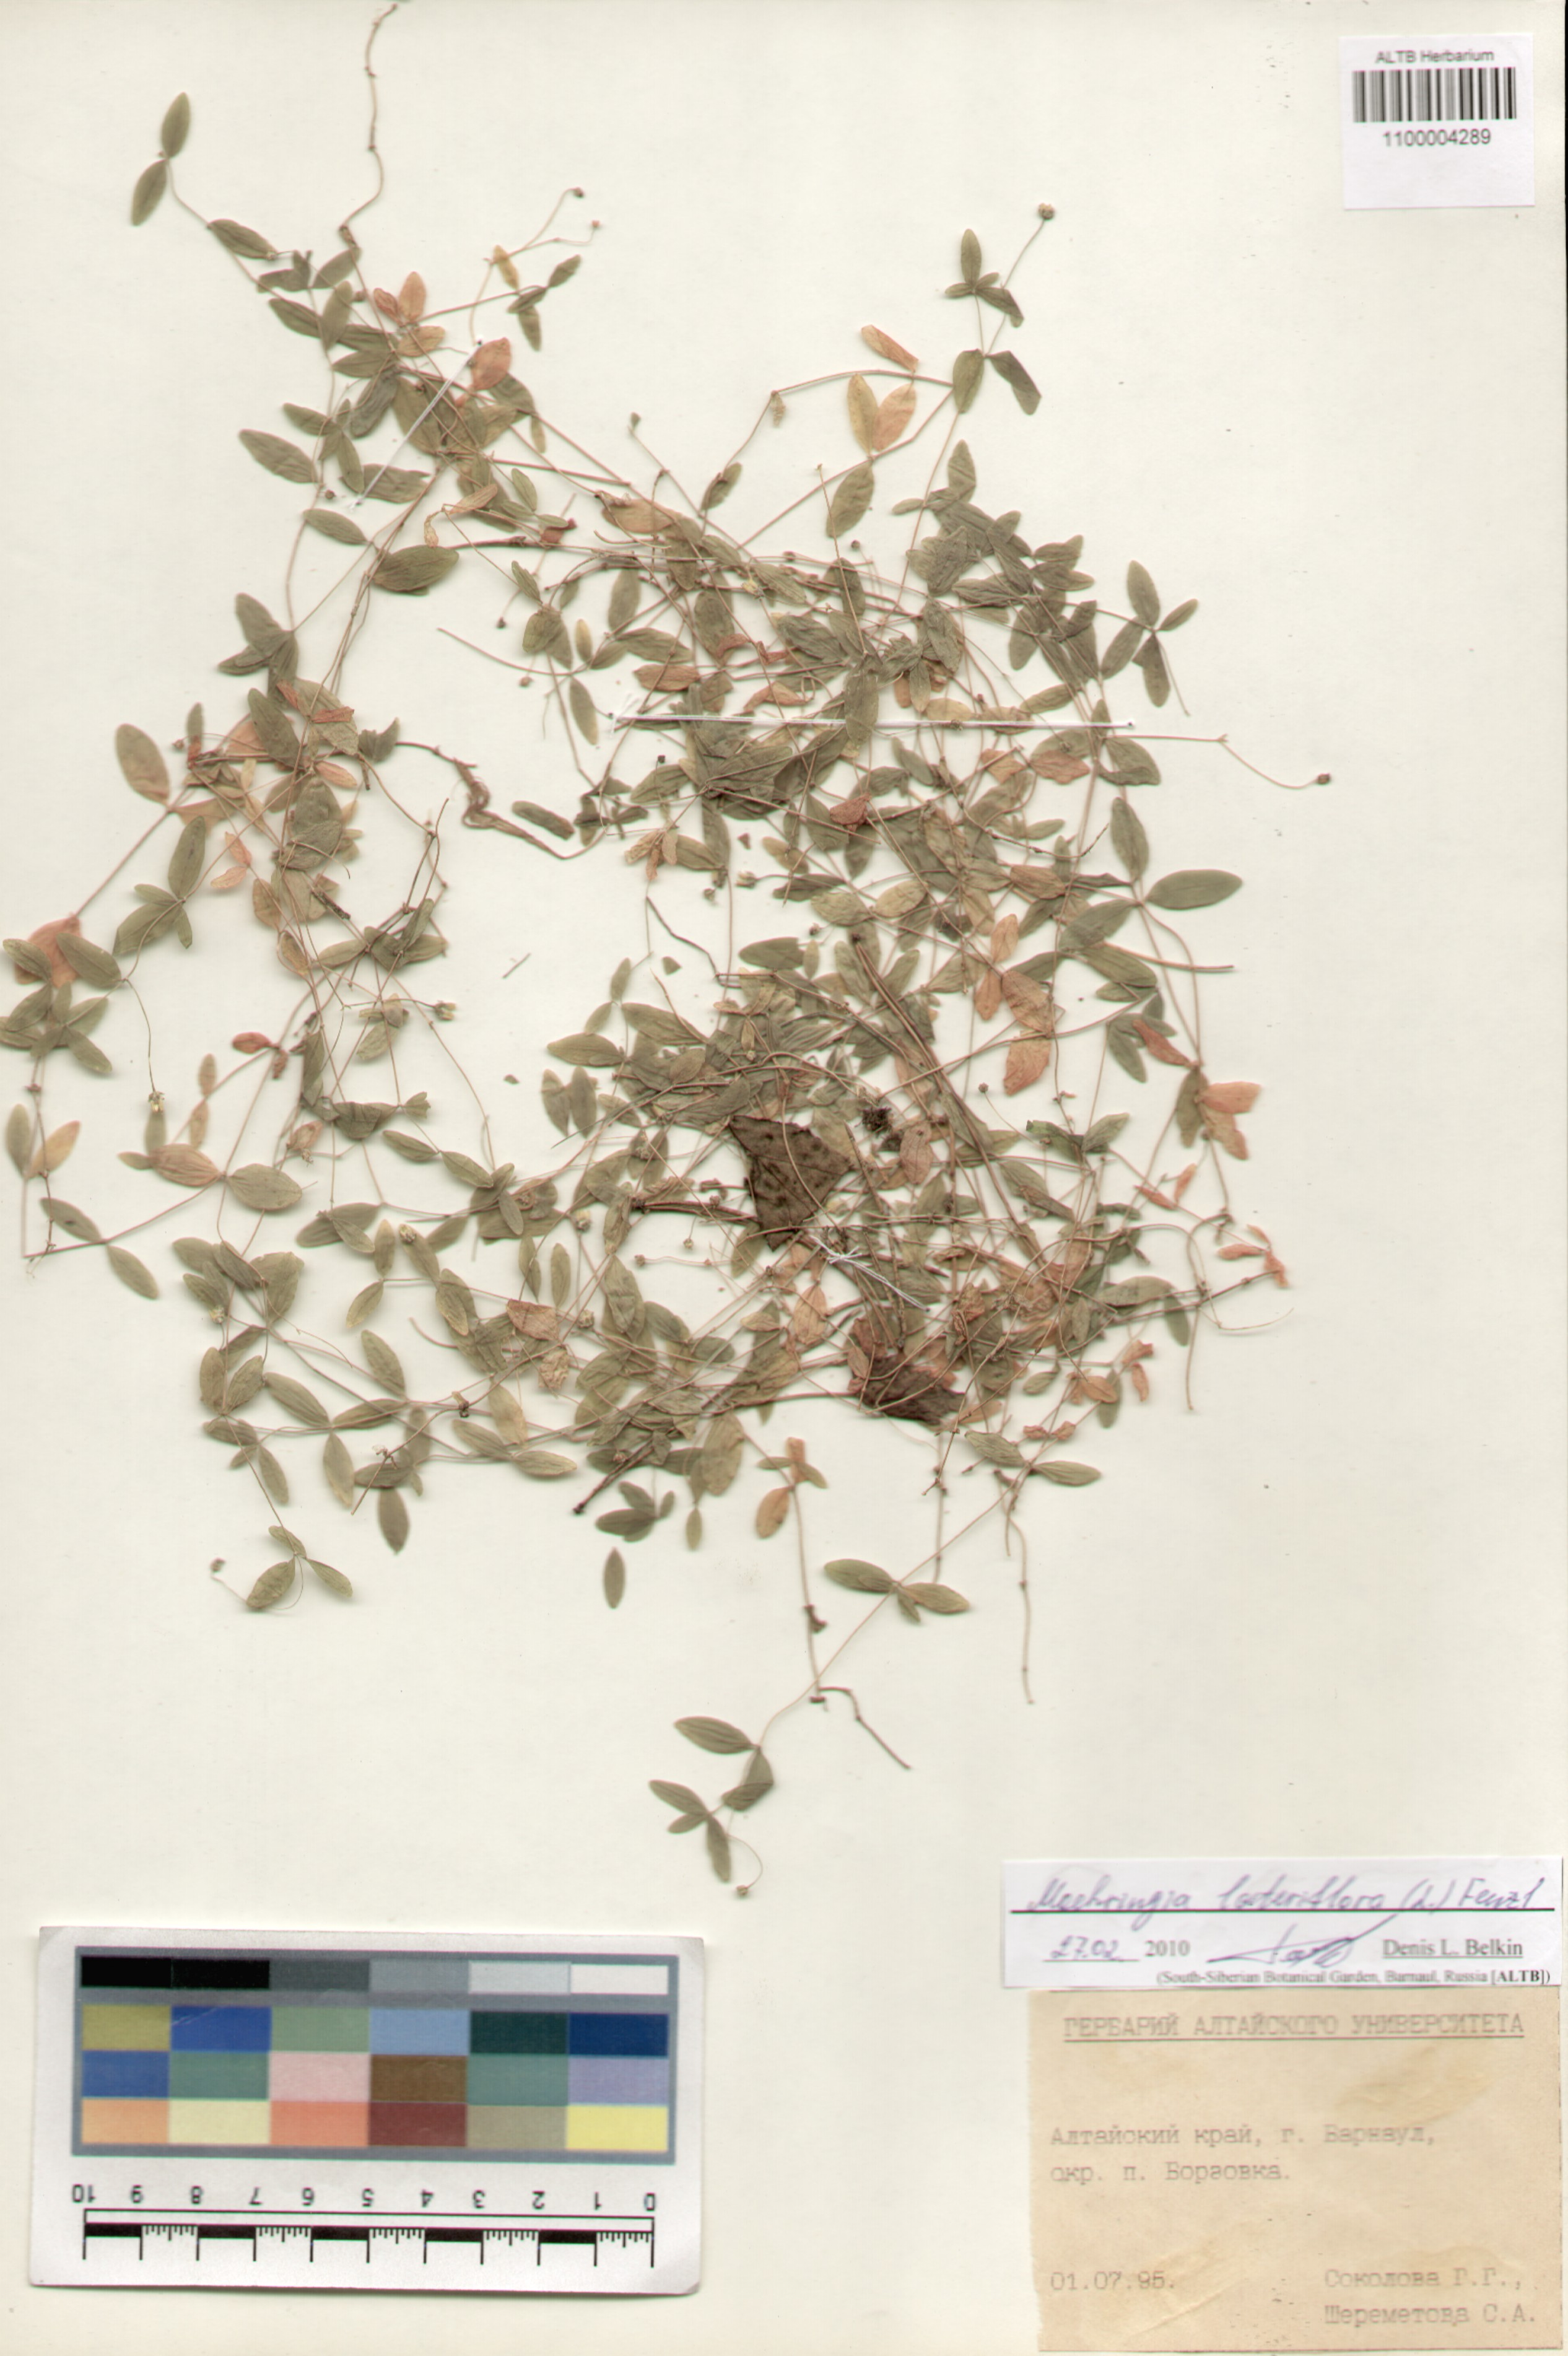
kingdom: Plantae
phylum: Tracheophyta
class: Magnoliopsida
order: Caryophyllales
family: Caryophyllaceae
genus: Moehringia
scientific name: Moehringia lateriflora
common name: Blunt-leaved sandwort
